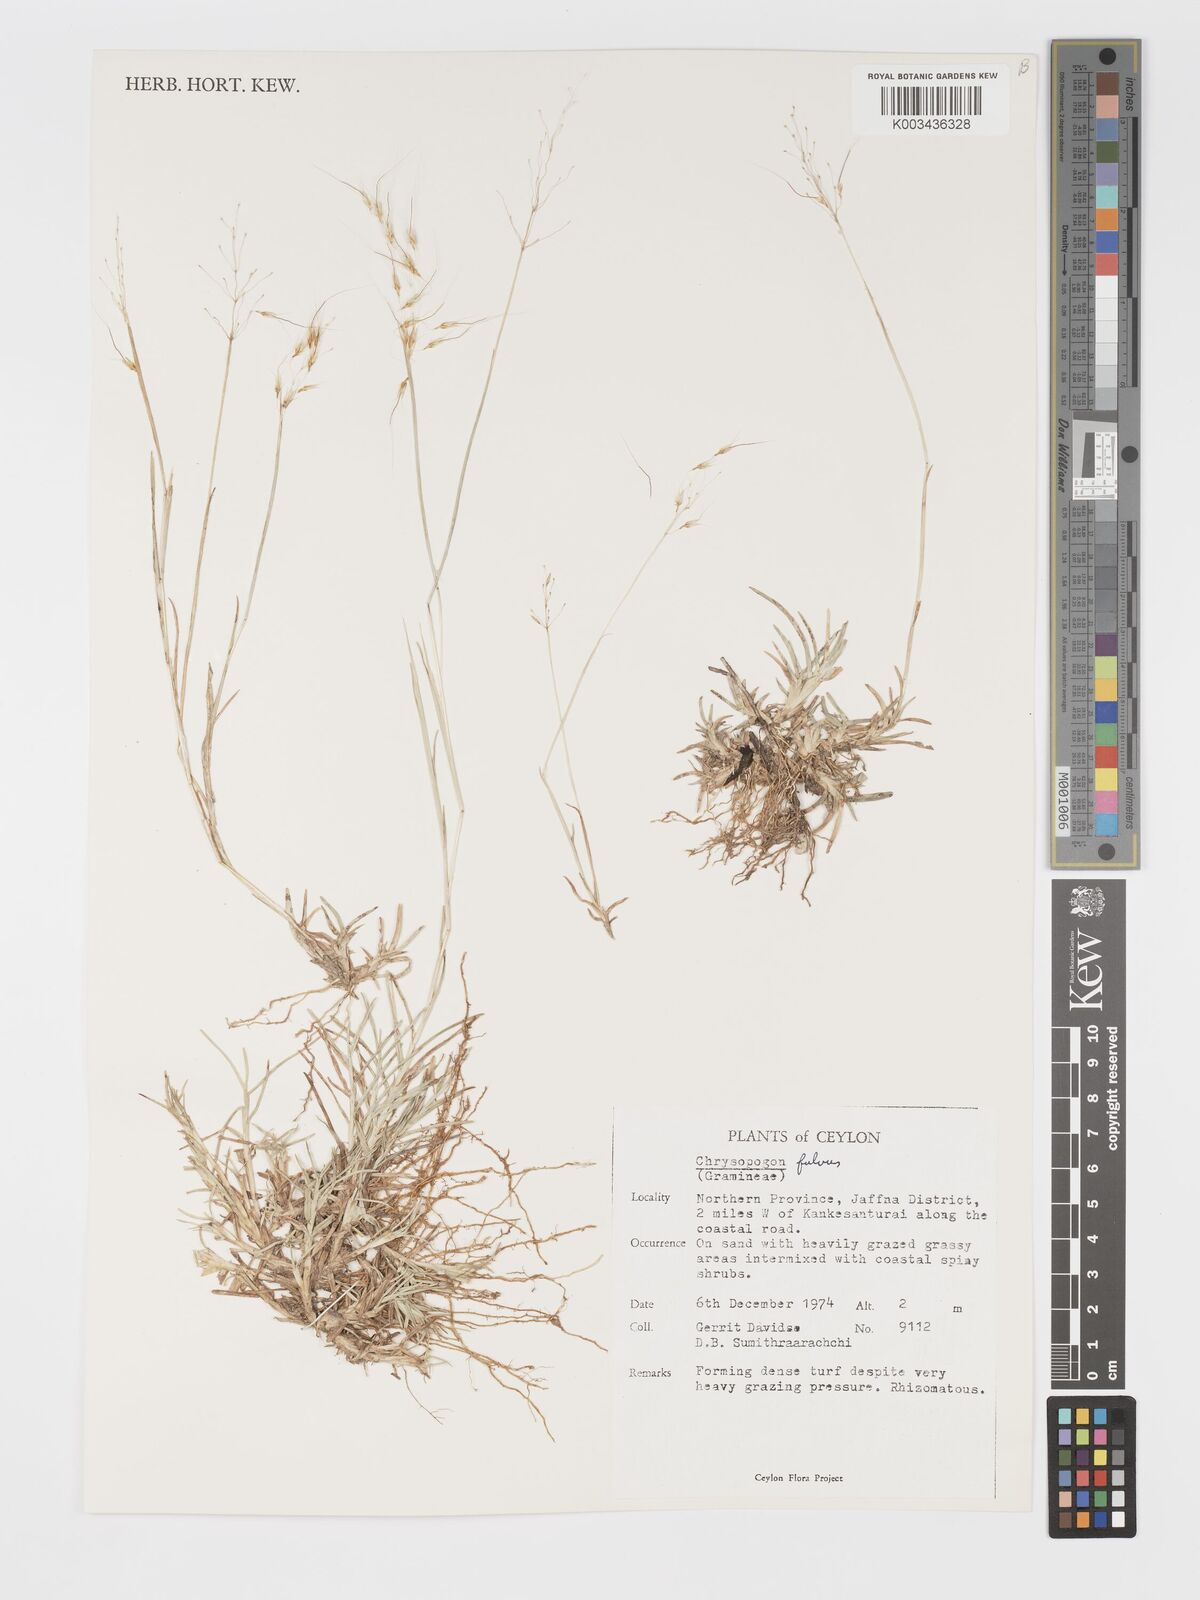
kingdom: Plantae
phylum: Tracheophyta
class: Liliopsida
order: Poales
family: Poaceae
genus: Chrysopogon
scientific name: Chrysopogon fulvus
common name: Red false beardgrass
